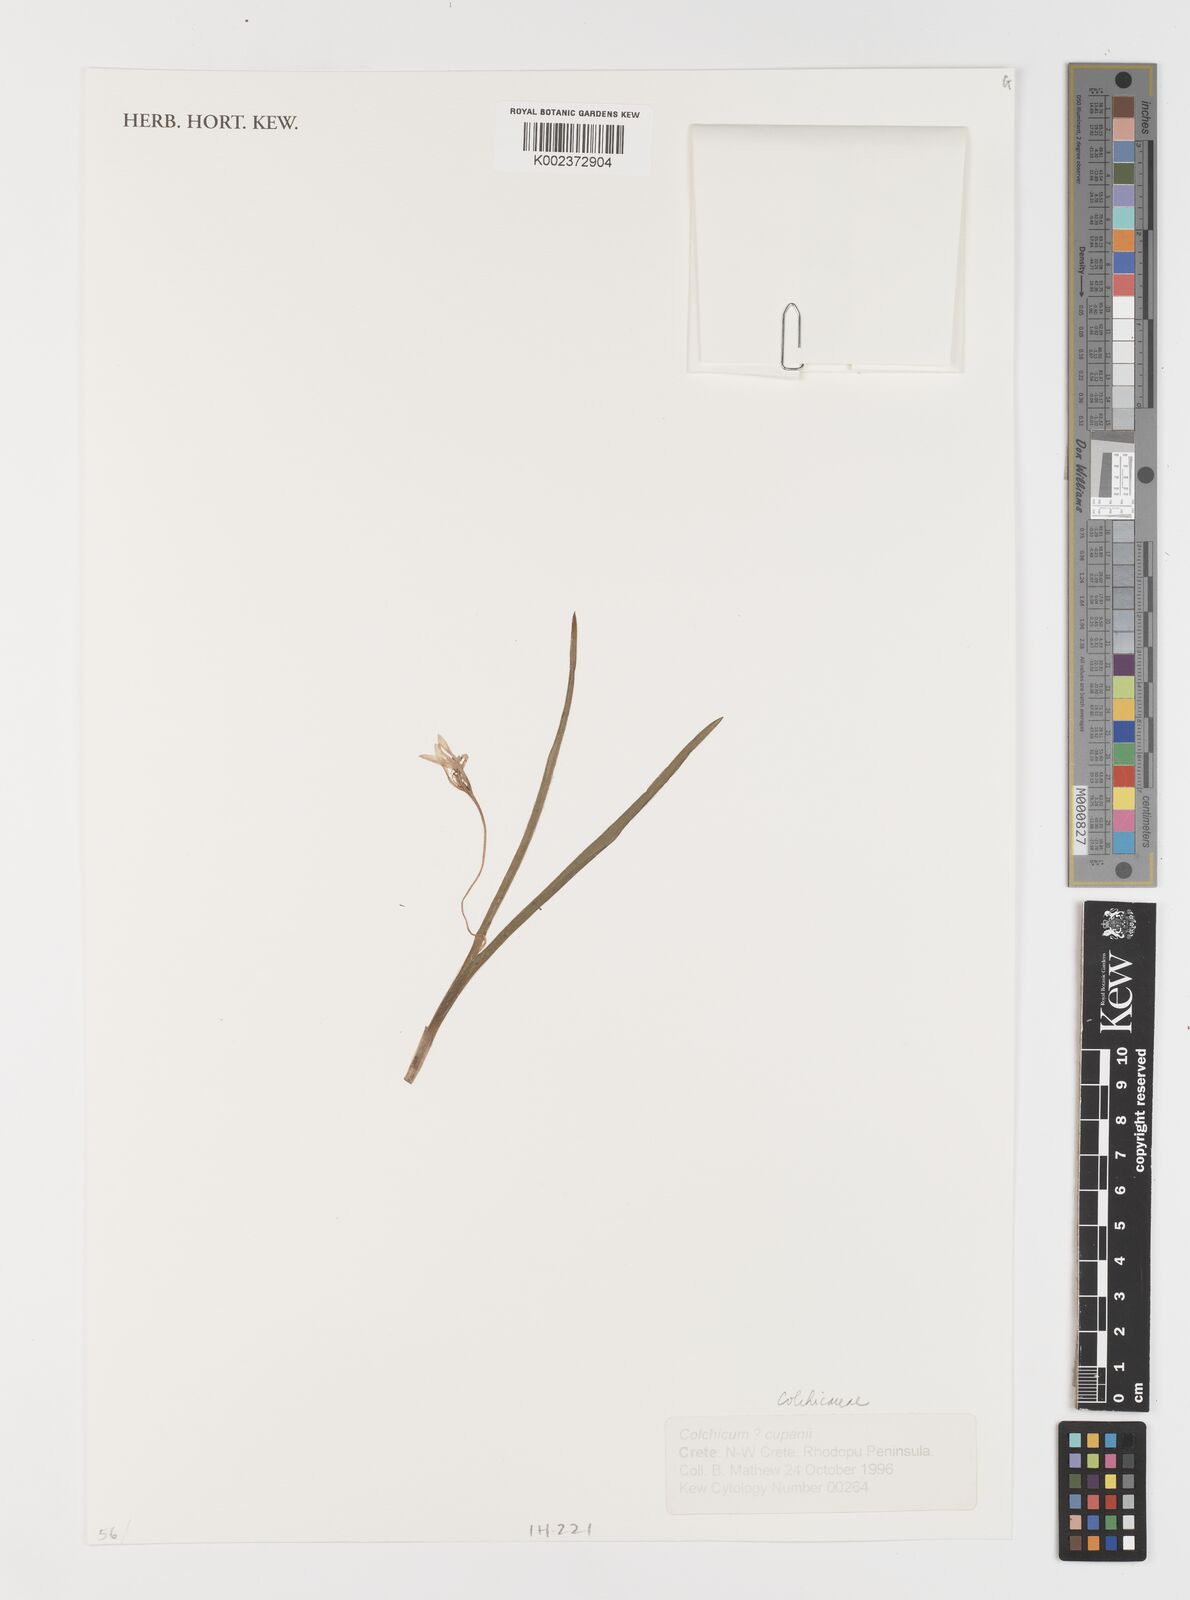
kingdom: Plantae
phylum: Tracheophyta
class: Liliopsida
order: Liliales
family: Colchicaceae
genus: Colchicum
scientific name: Colchicum cupanii
